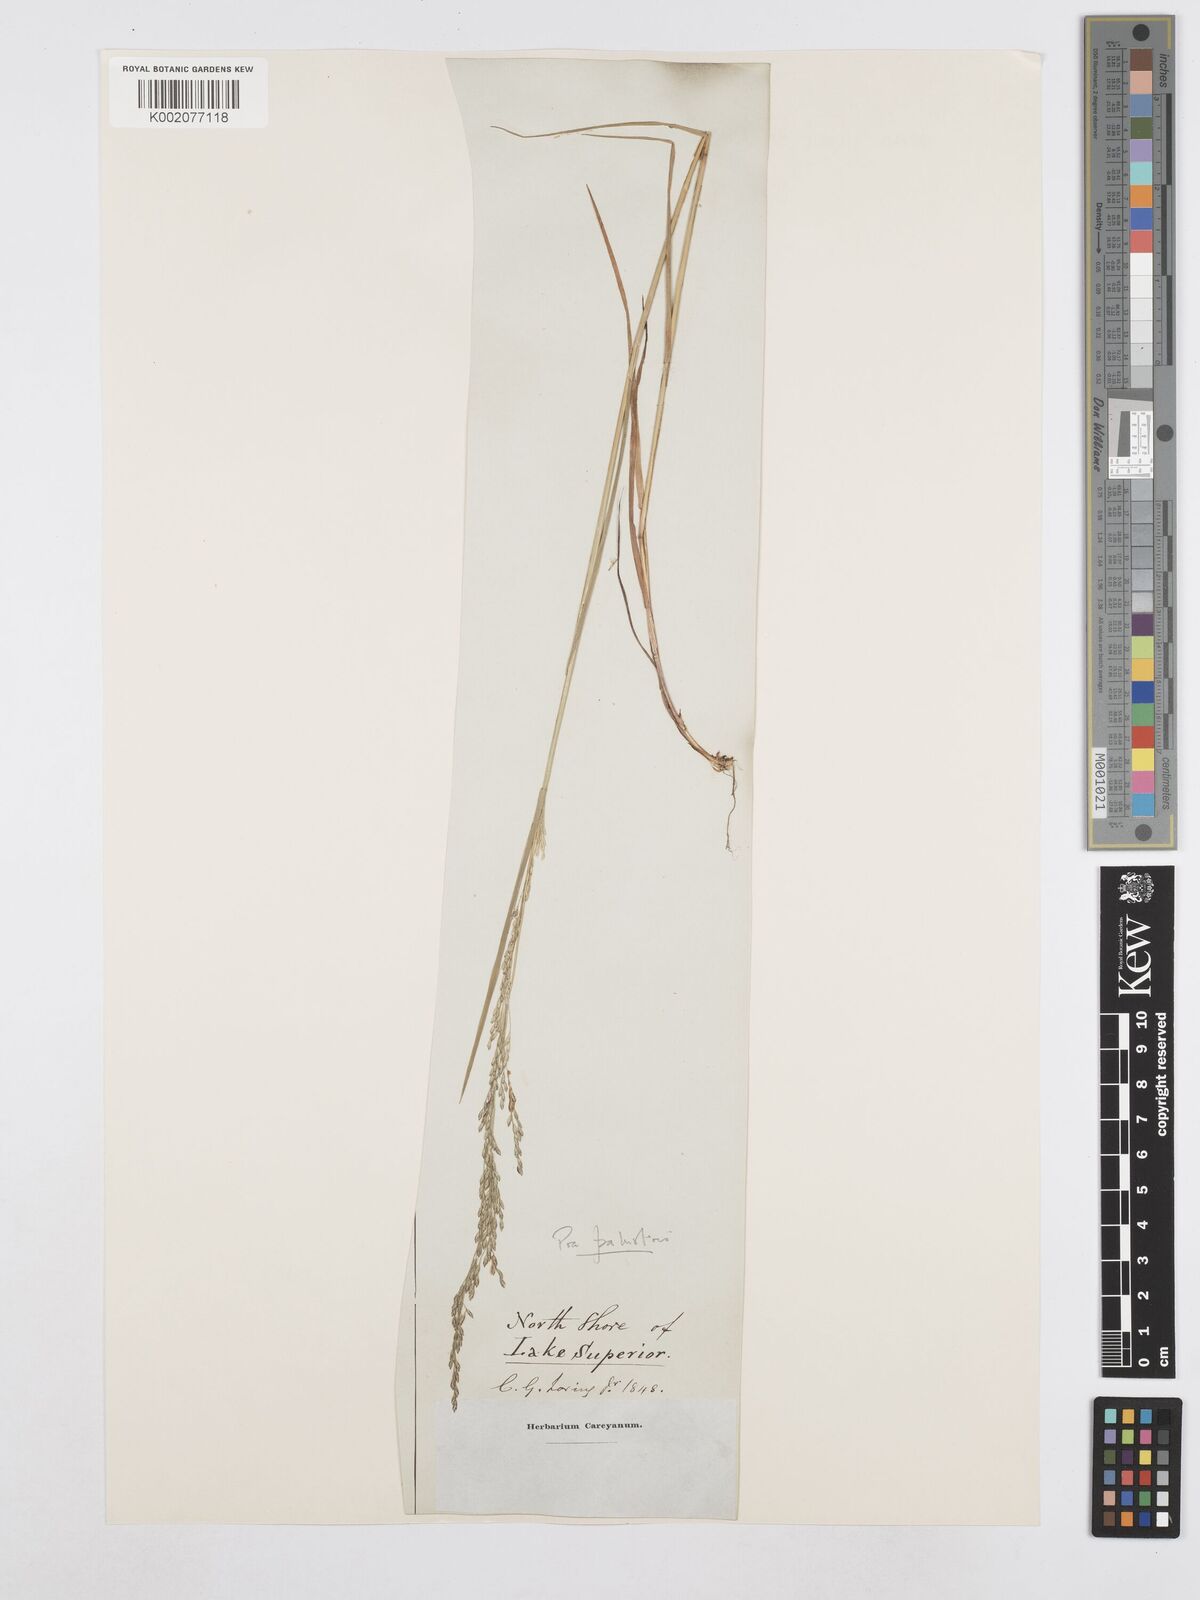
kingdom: Plantae
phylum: Tracheophyta
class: Liliopsida
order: Poales
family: Poaceae
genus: Poa
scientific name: Poa palustris
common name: Swamp meadow-grass
